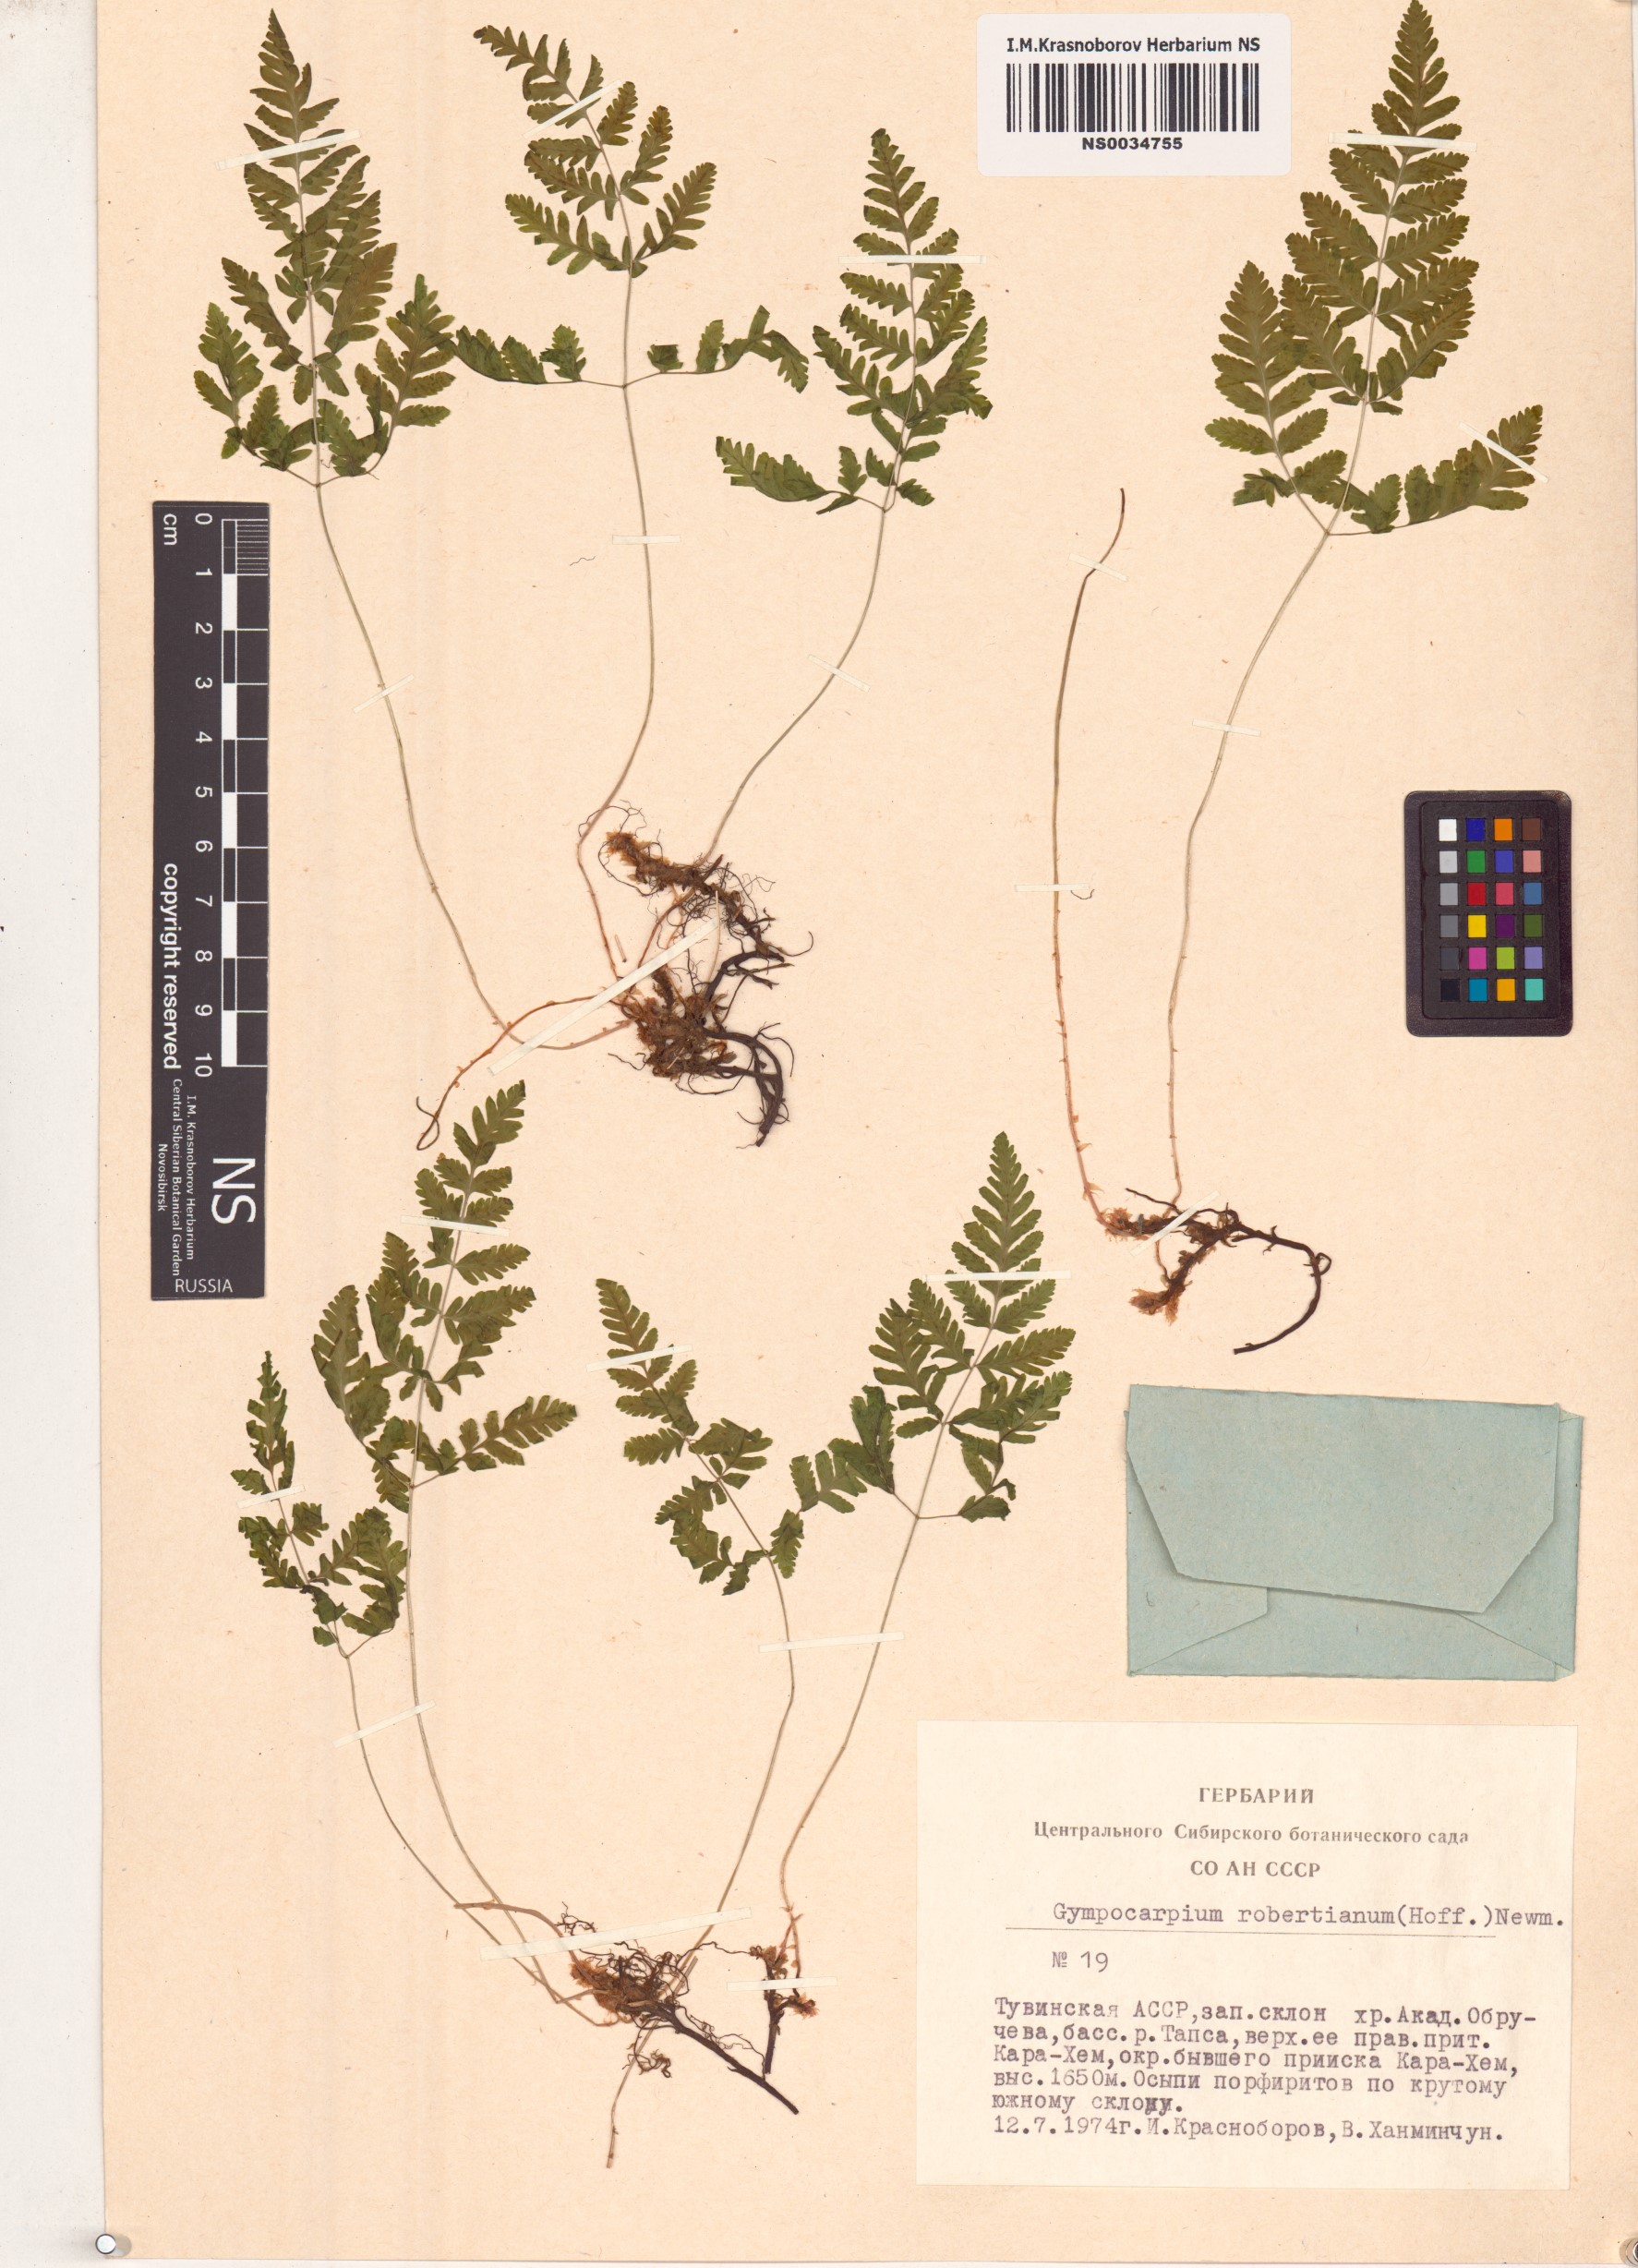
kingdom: Plantae
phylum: Tracheophyta
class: Polypodiopsida
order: Polypodiales
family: Cystopteridaceae
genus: Gymnocarpium
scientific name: Gymnocarpium robertianum
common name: Limestone fern
